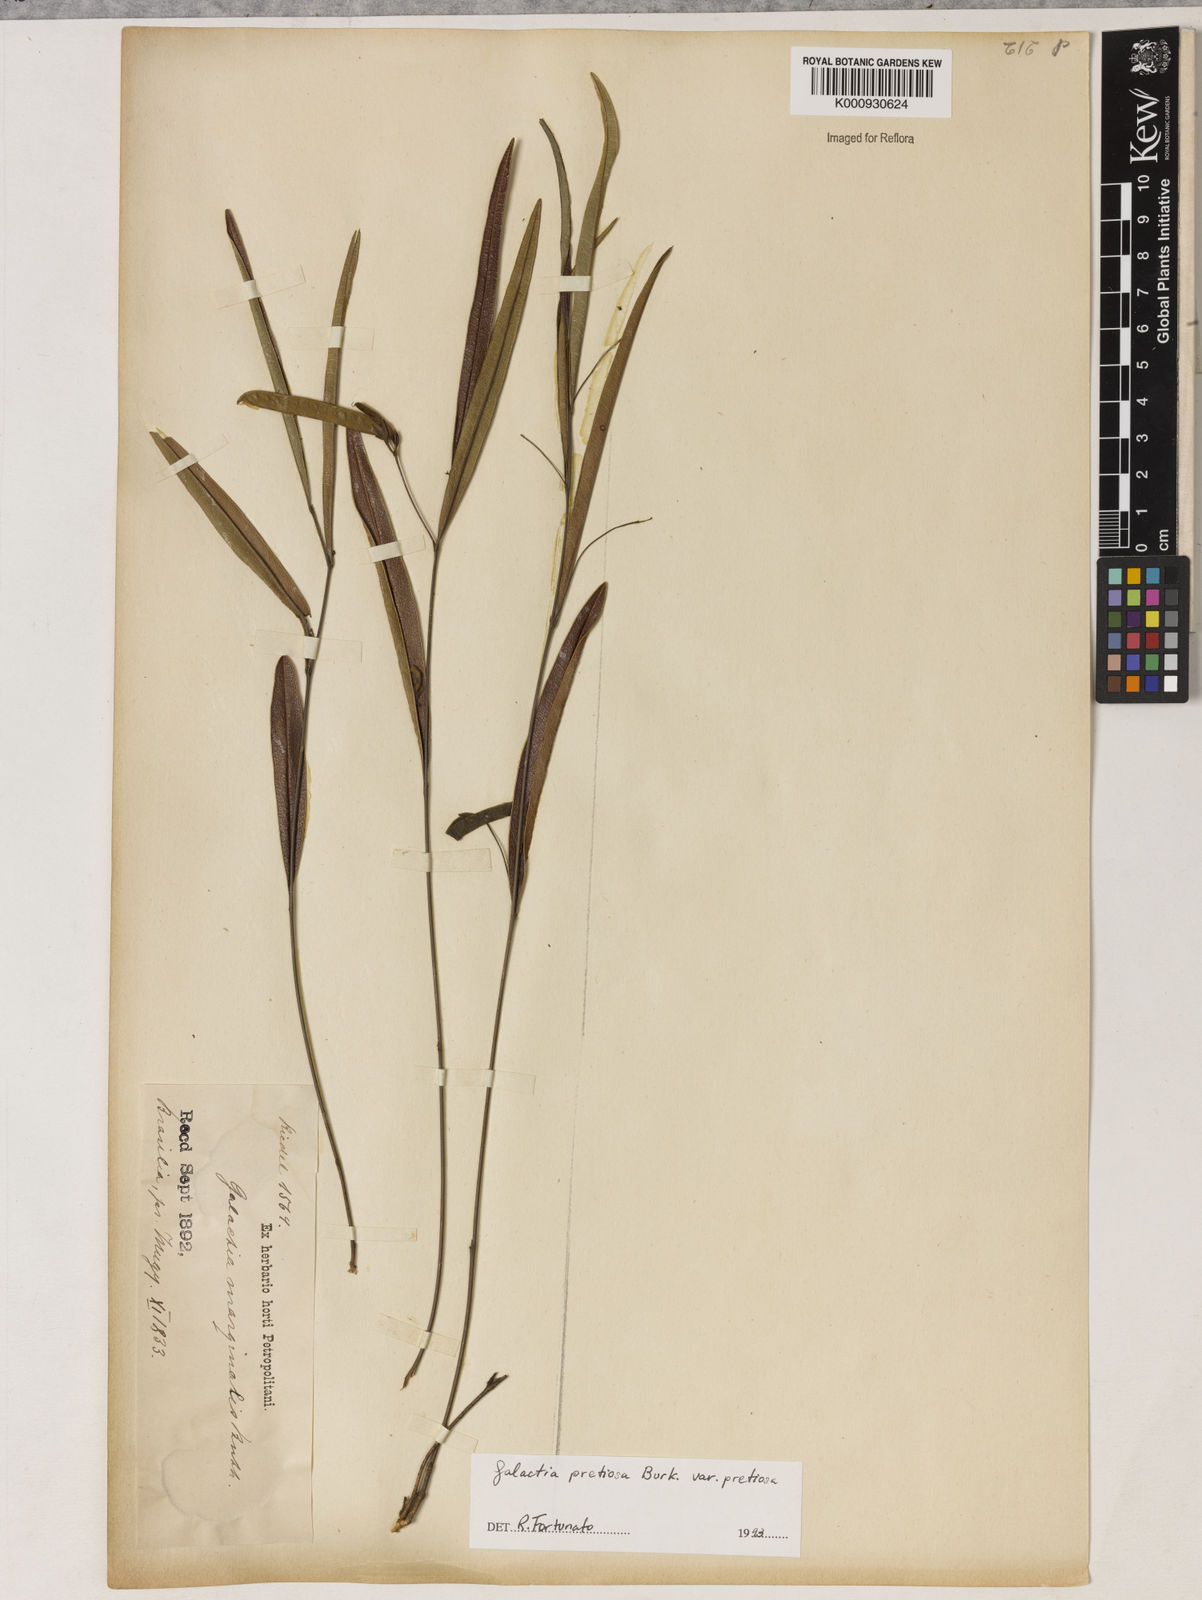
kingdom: Plantae
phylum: Tracheophyta
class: Magnoliopsida
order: Fabales
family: Fabaceae
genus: Nanogalactia
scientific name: Nanogalactia pretiosa
